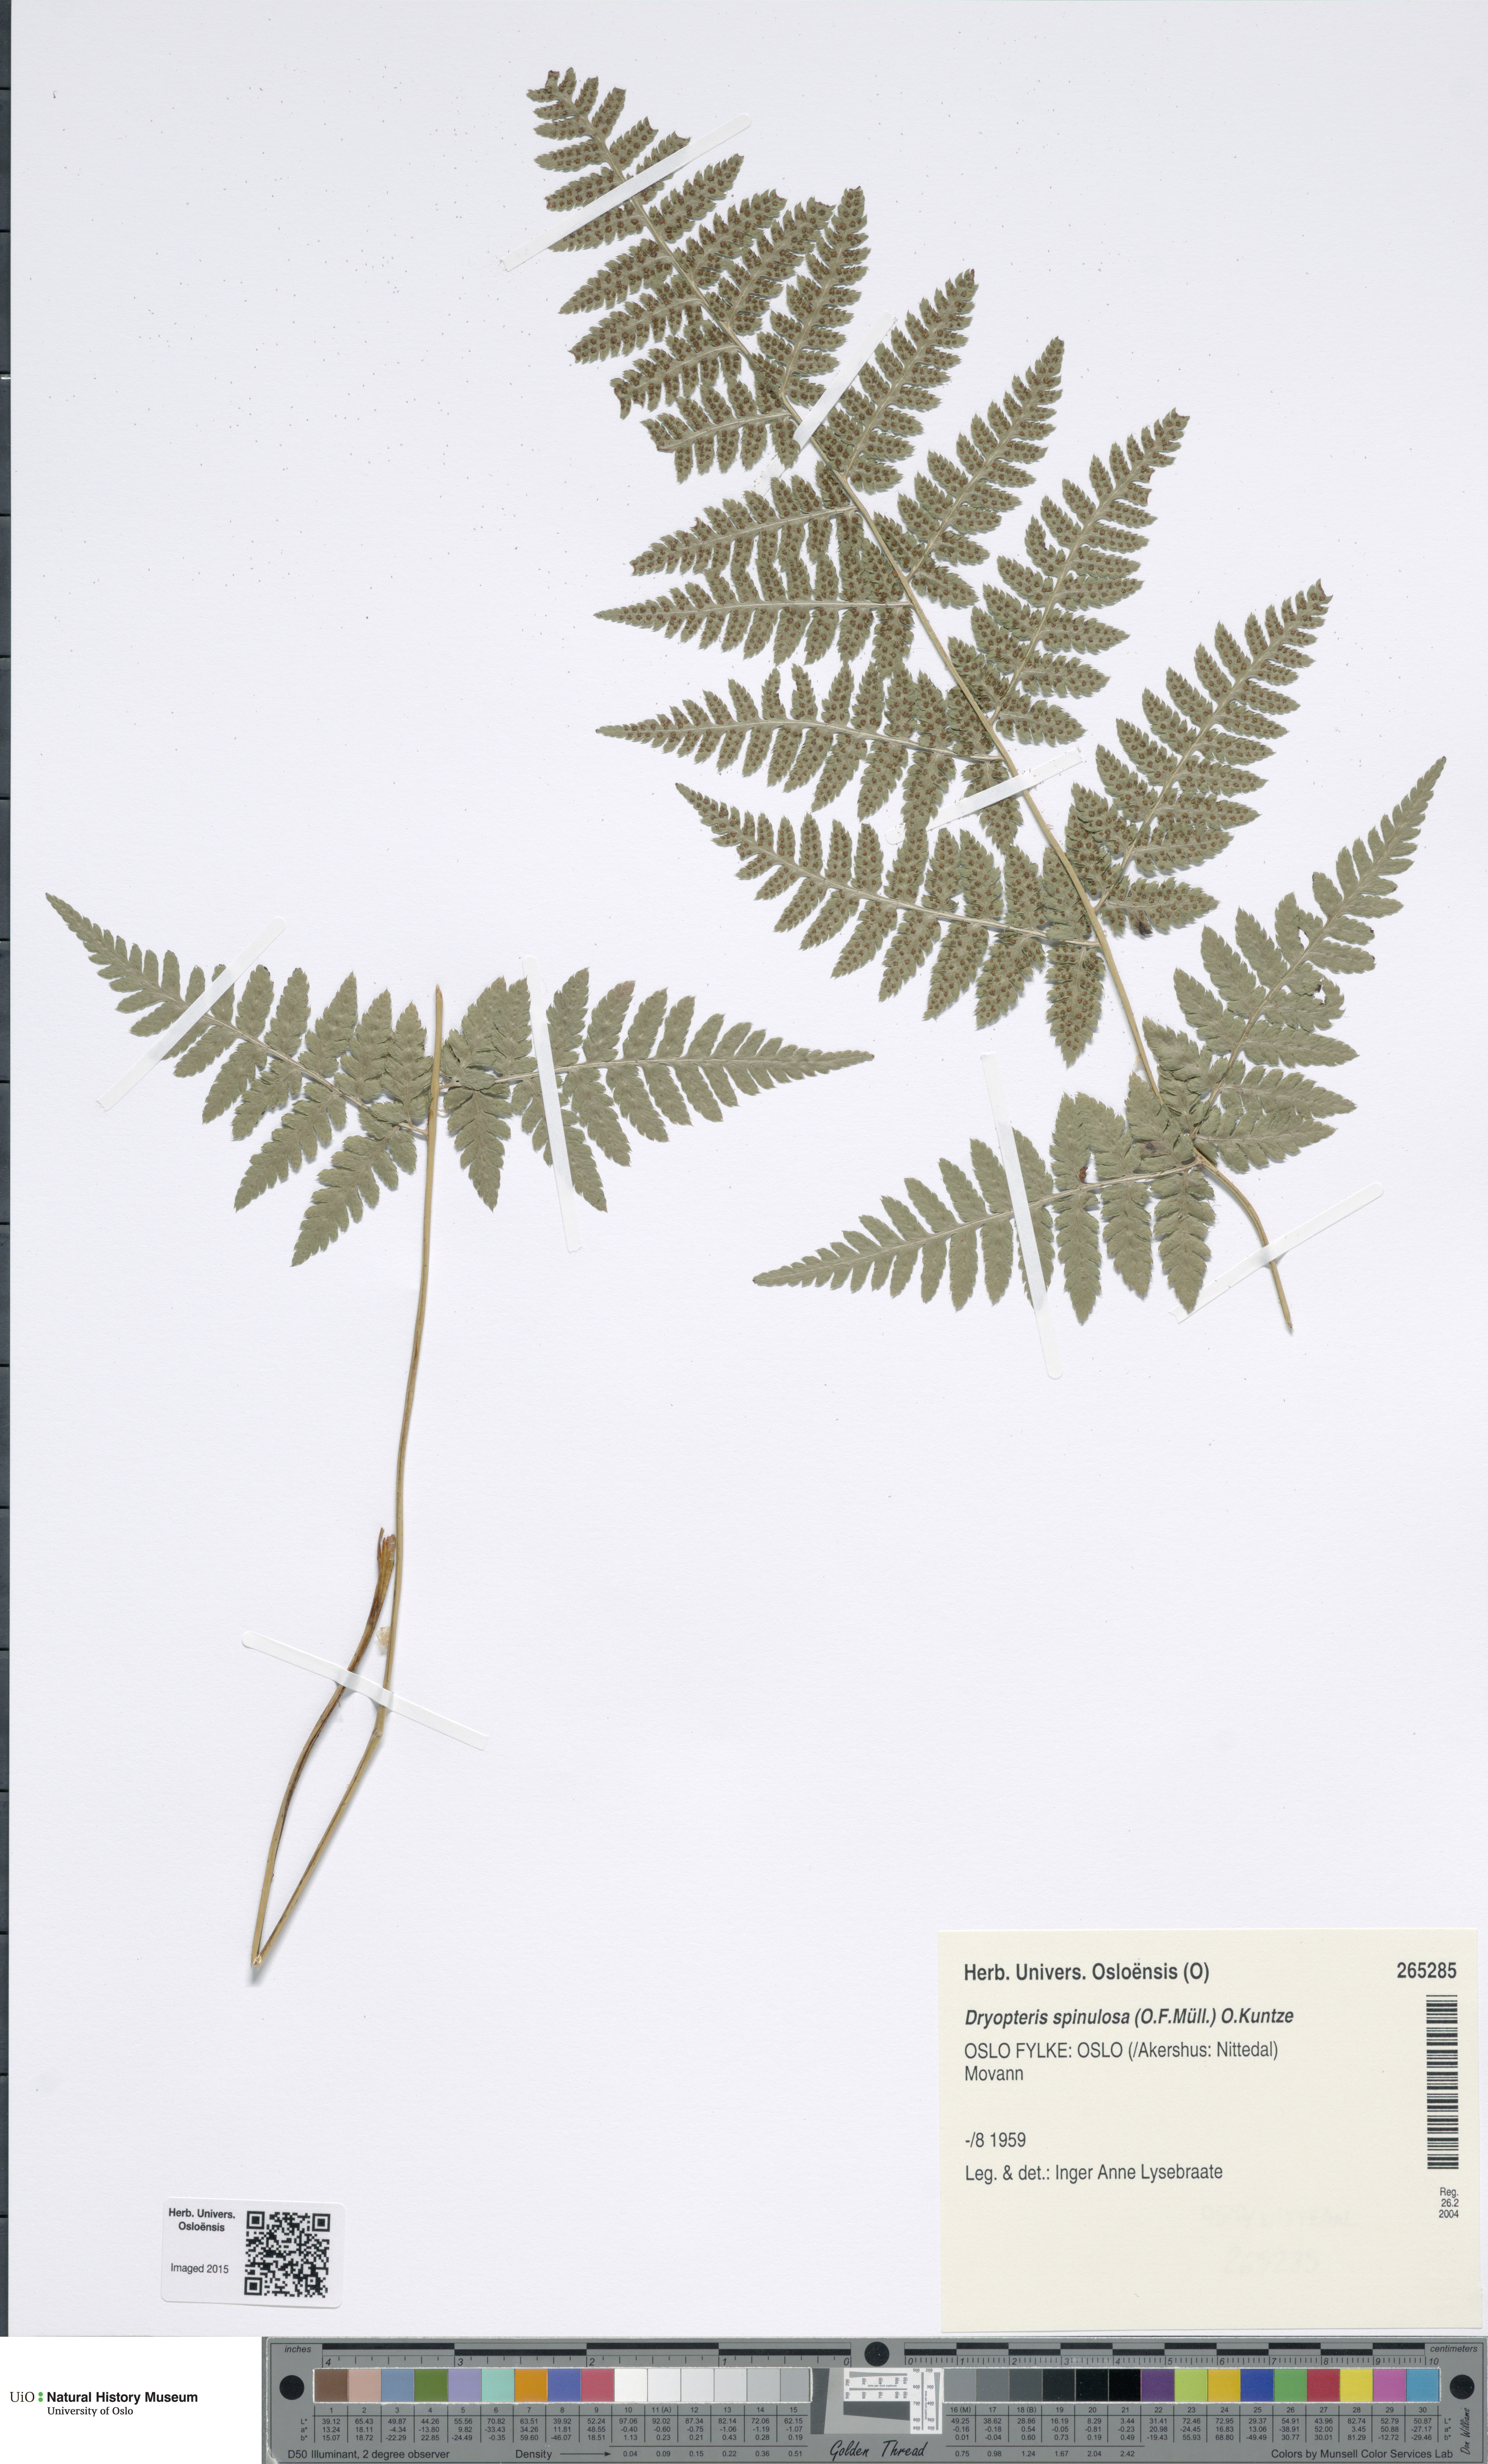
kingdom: Plantae
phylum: Tracheophyta
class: Polypodiopsida
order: Polypodiales
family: Dryopteridaceae
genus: Dryopteris
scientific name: Dryopteris carthusiana
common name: Narrow buckler-fern
